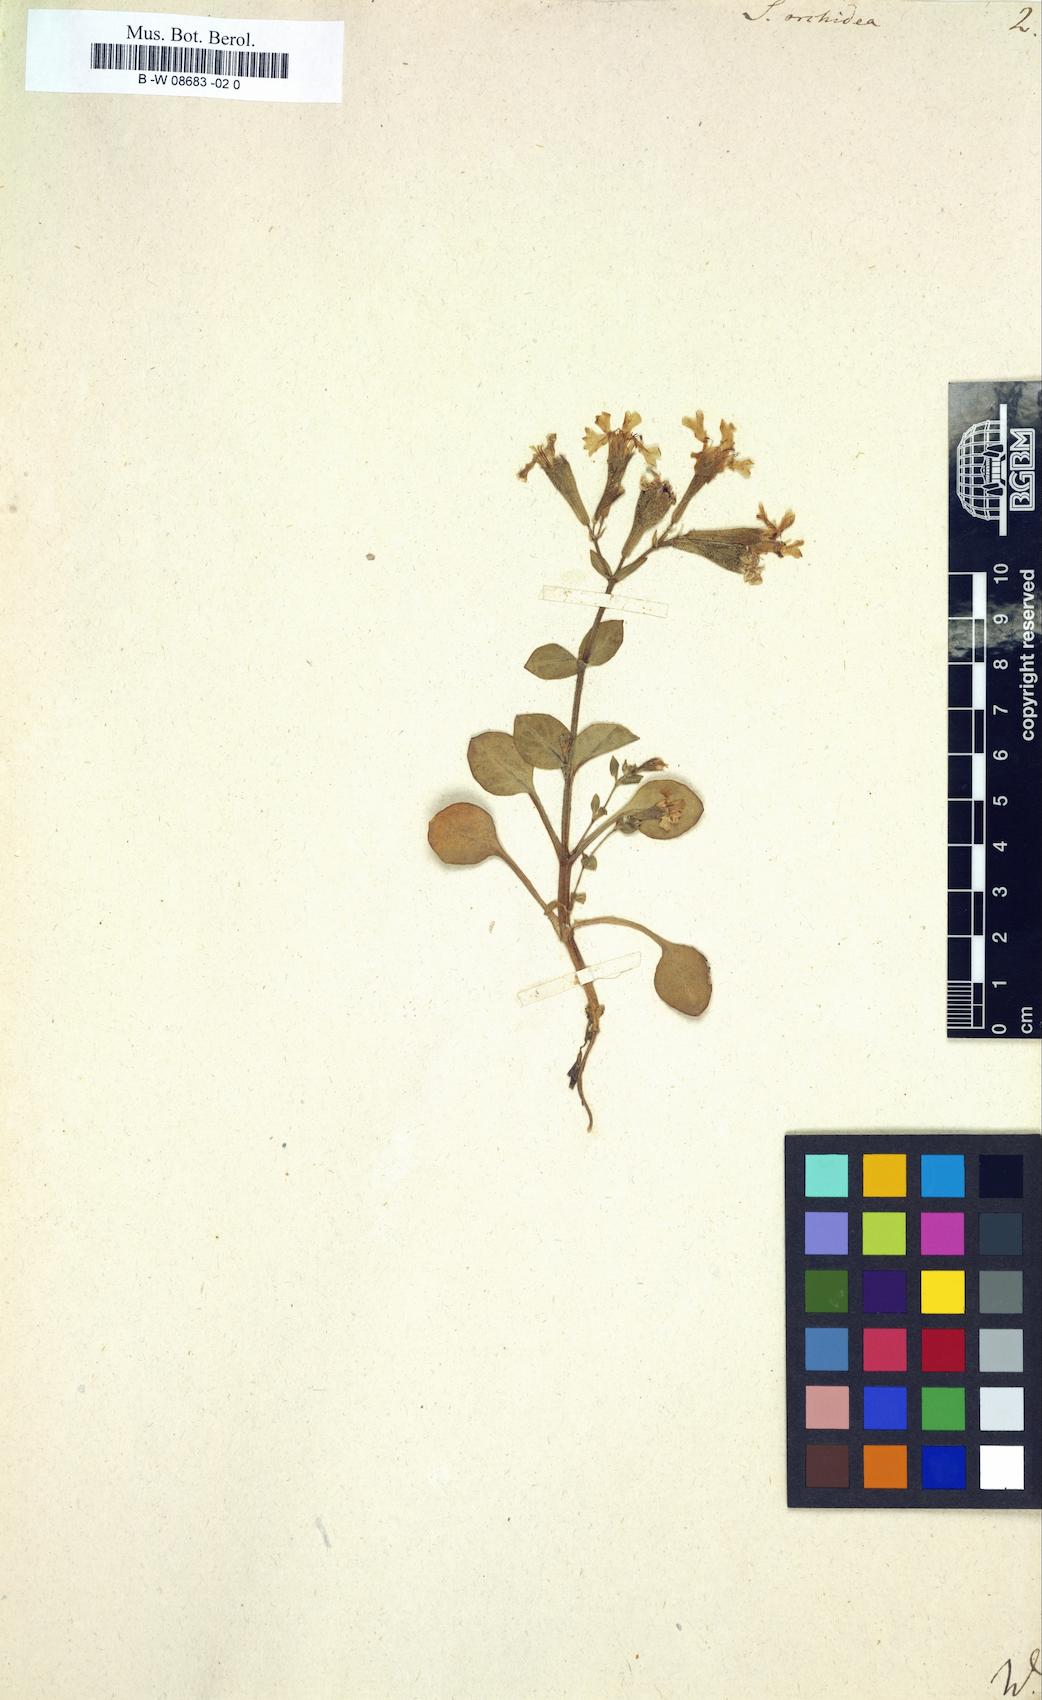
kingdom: Plantae
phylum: Tracheophyta
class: Magnoliopsida
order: Caryophyllales
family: Caryophyllaceae
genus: Silene
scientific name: Silene
